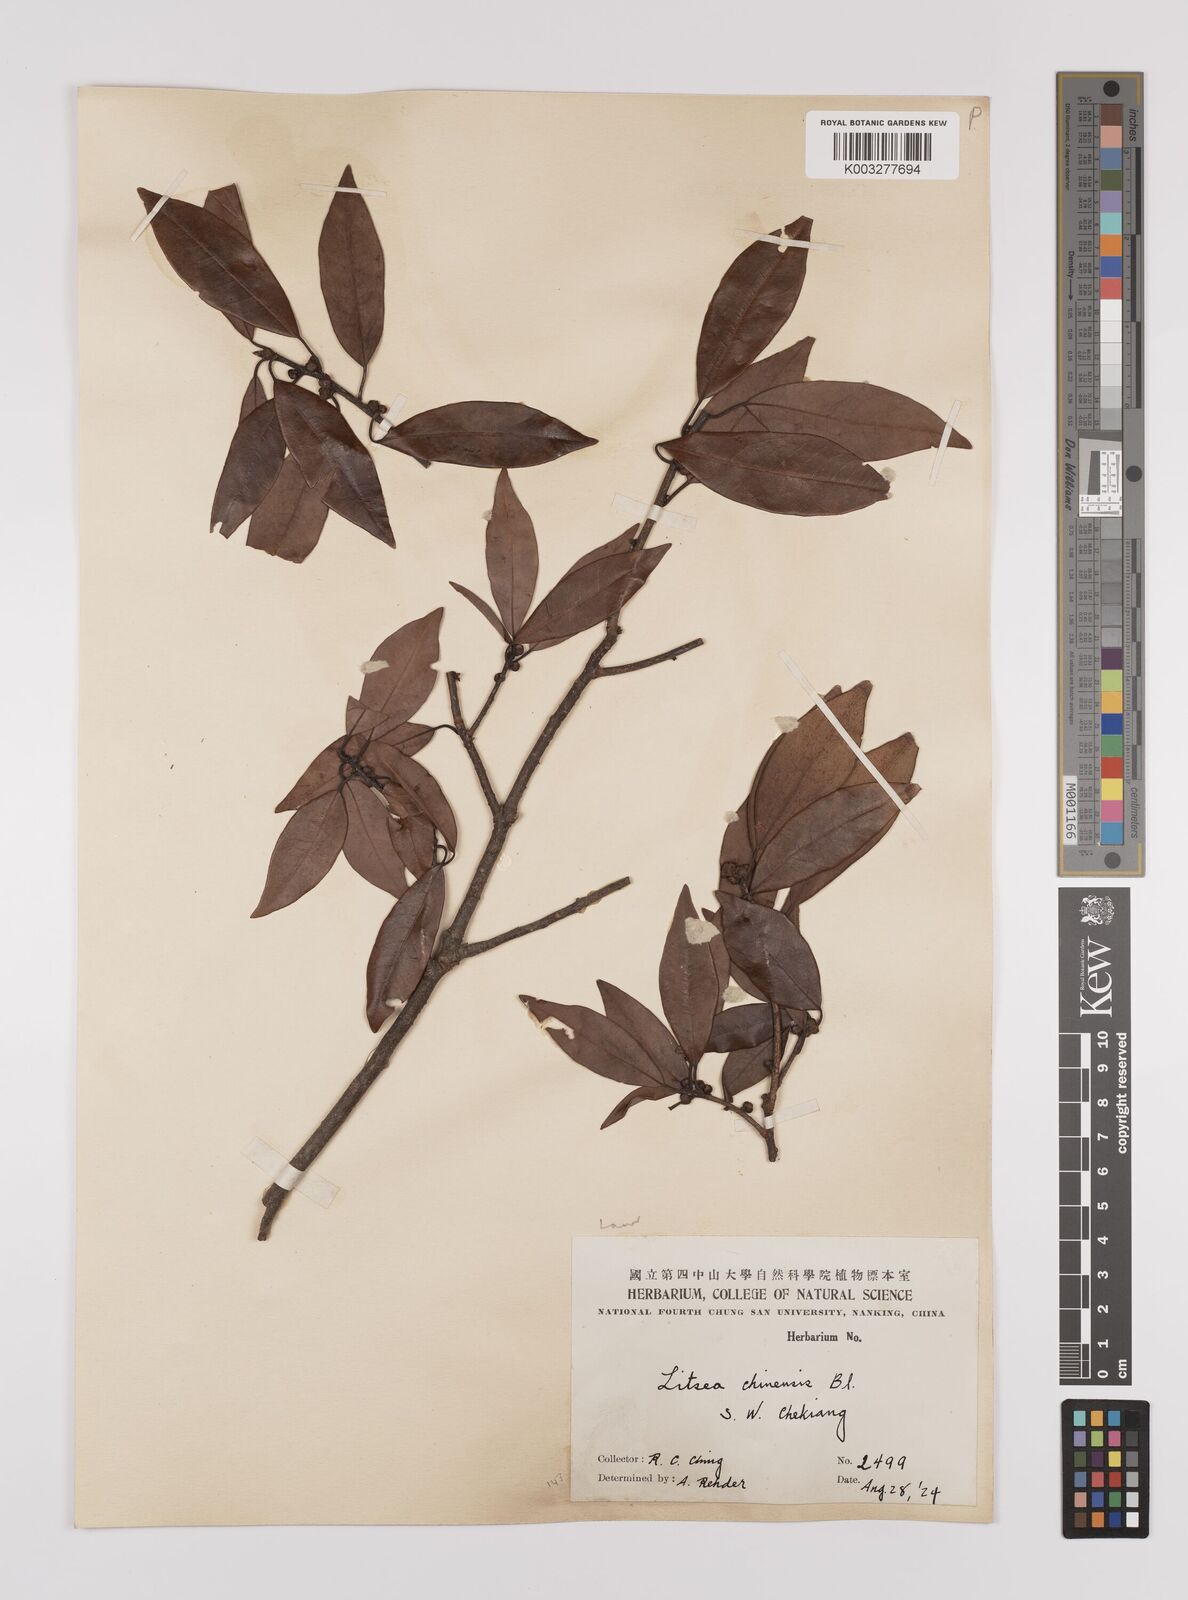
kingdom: Plantae
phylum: Tracheophyta
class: Magnoliopsida
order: Laurales
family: Lauraceae
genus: Litsea
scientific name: Litsea rotundifolia
